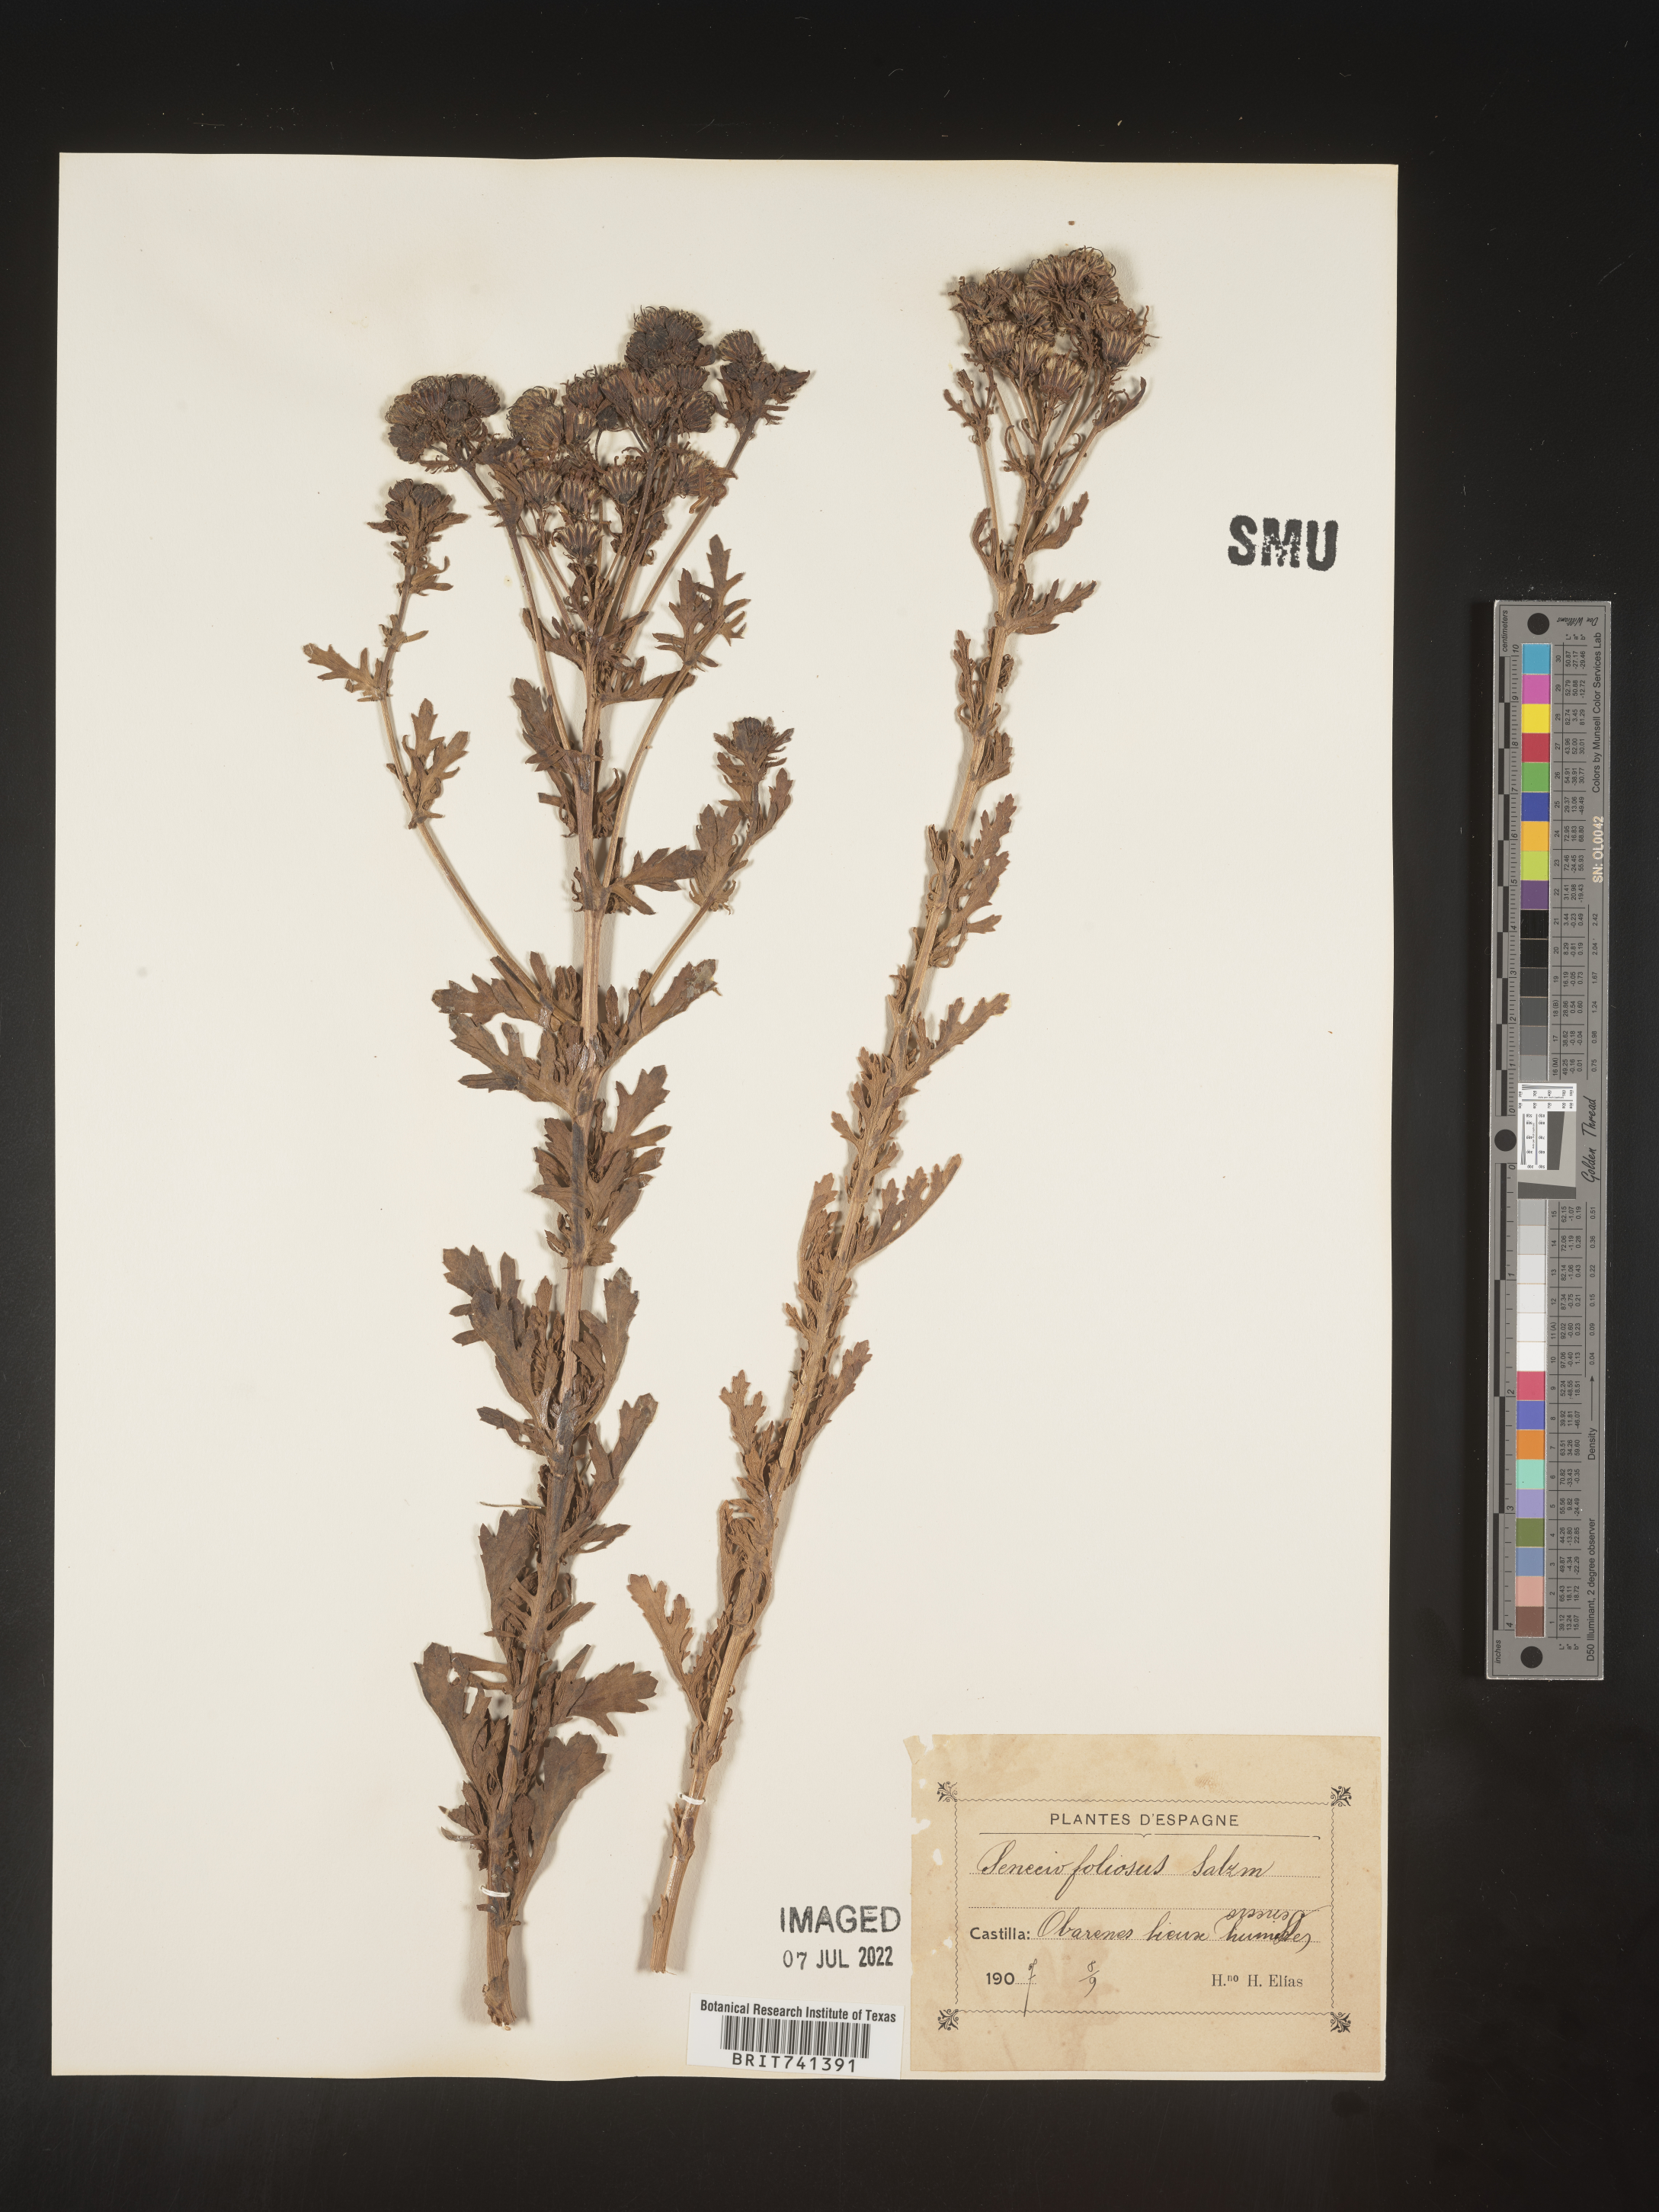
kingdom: Plantae
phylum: Tracheophyta
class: Magnoliopsida
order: Asterales
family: Asteraceae
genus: Senecio
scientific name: Senecio
